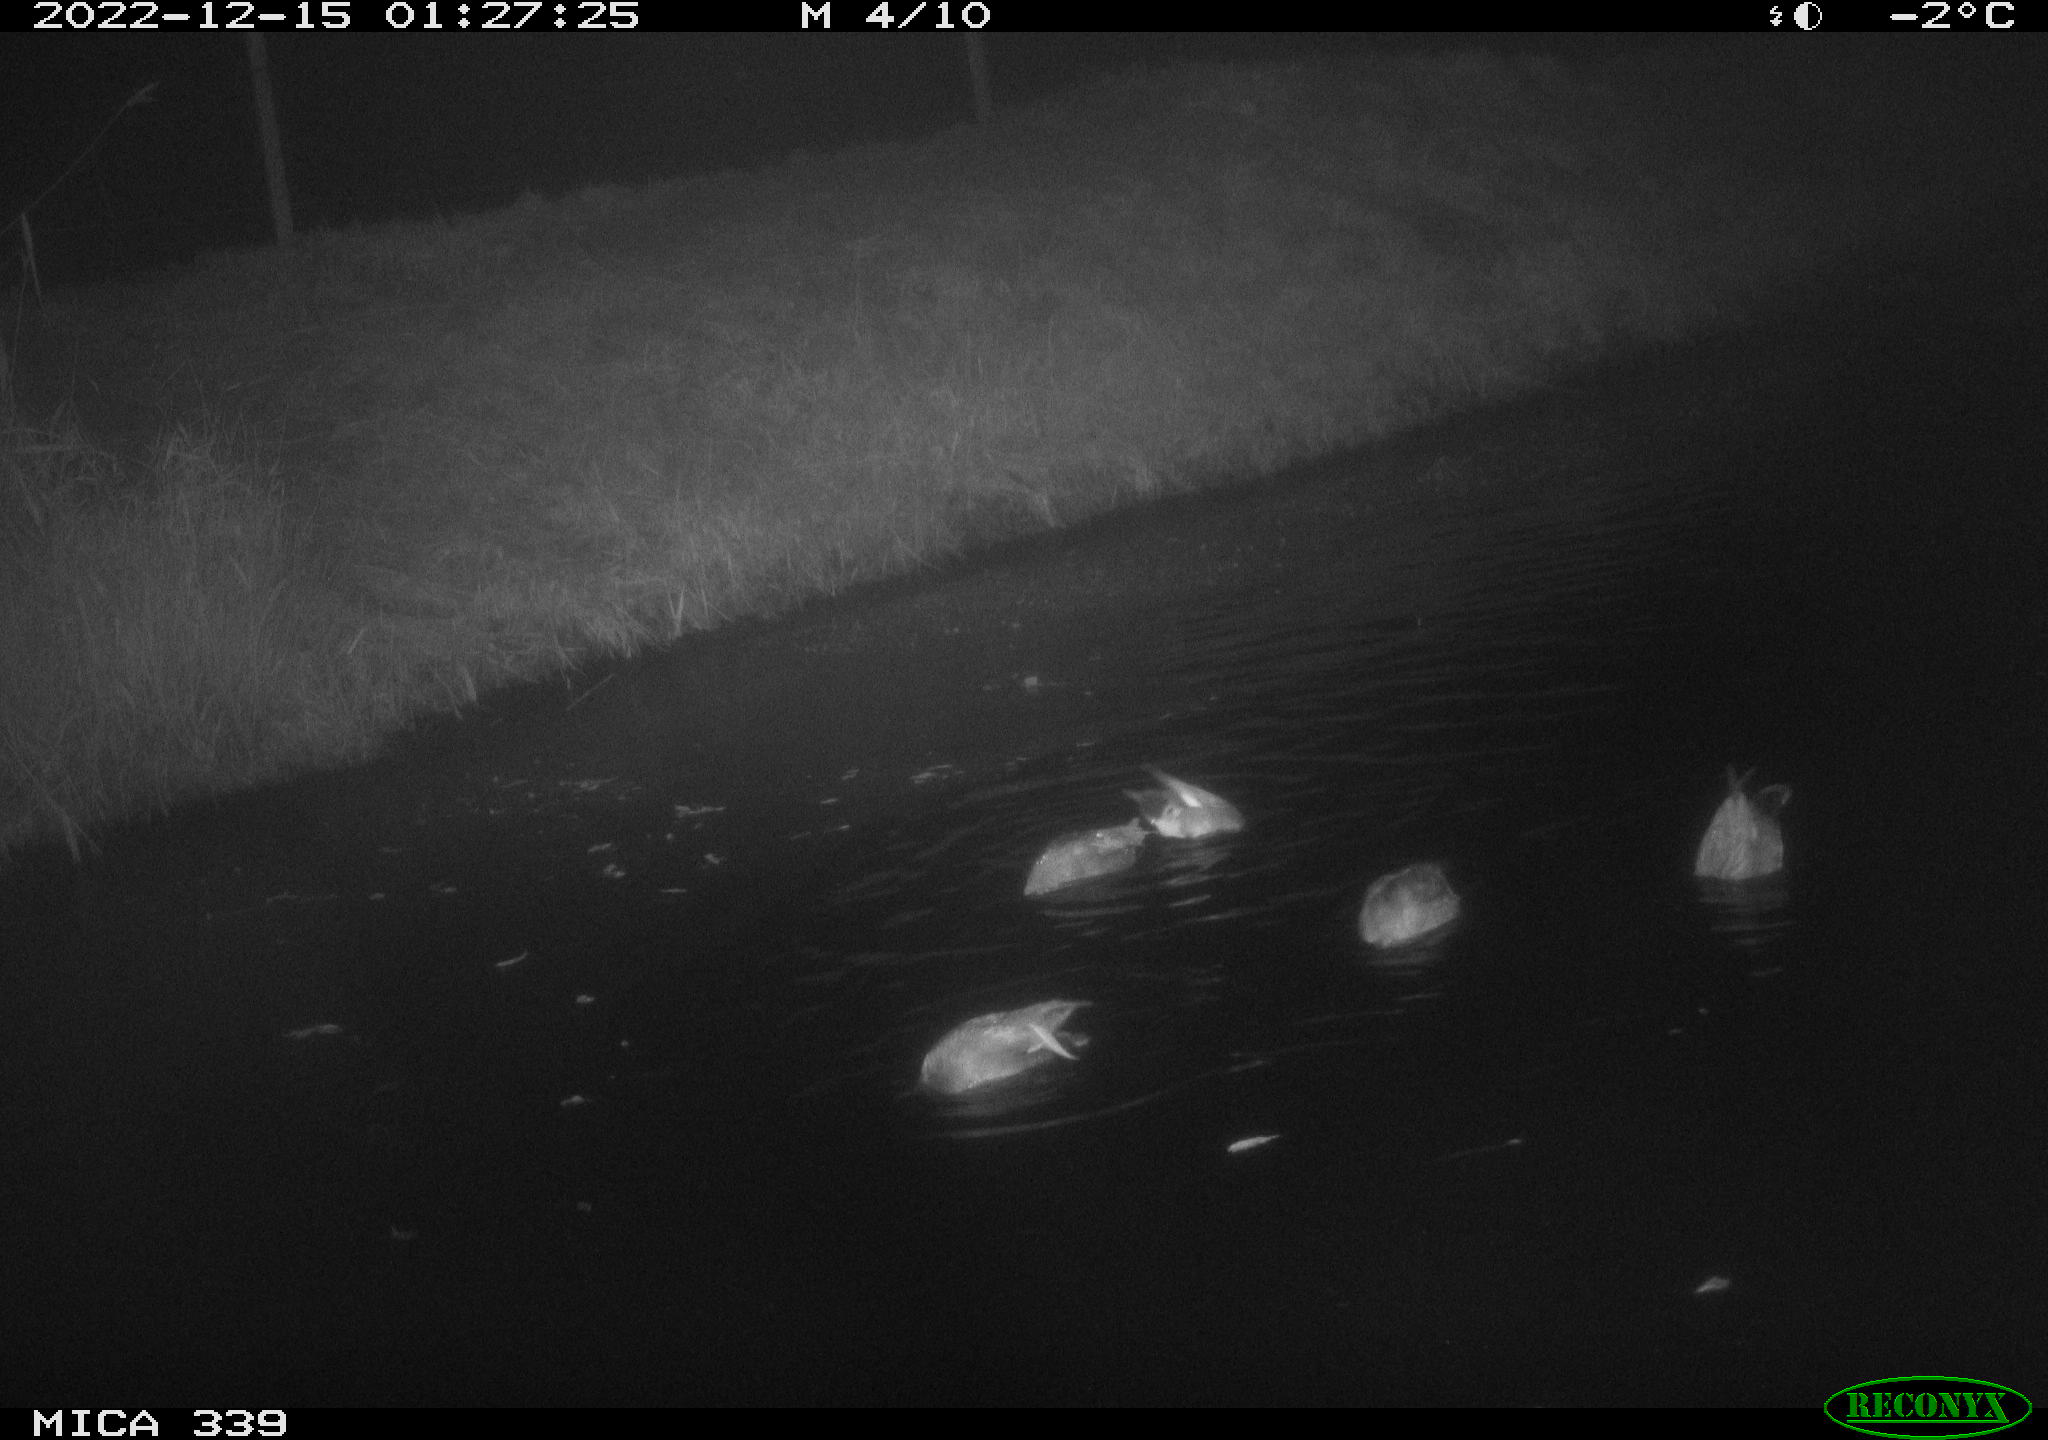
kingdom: Animalia
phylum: Chordata
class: Aves
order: Anseriformes
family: Anatidae
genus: Anas
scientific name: Anas
